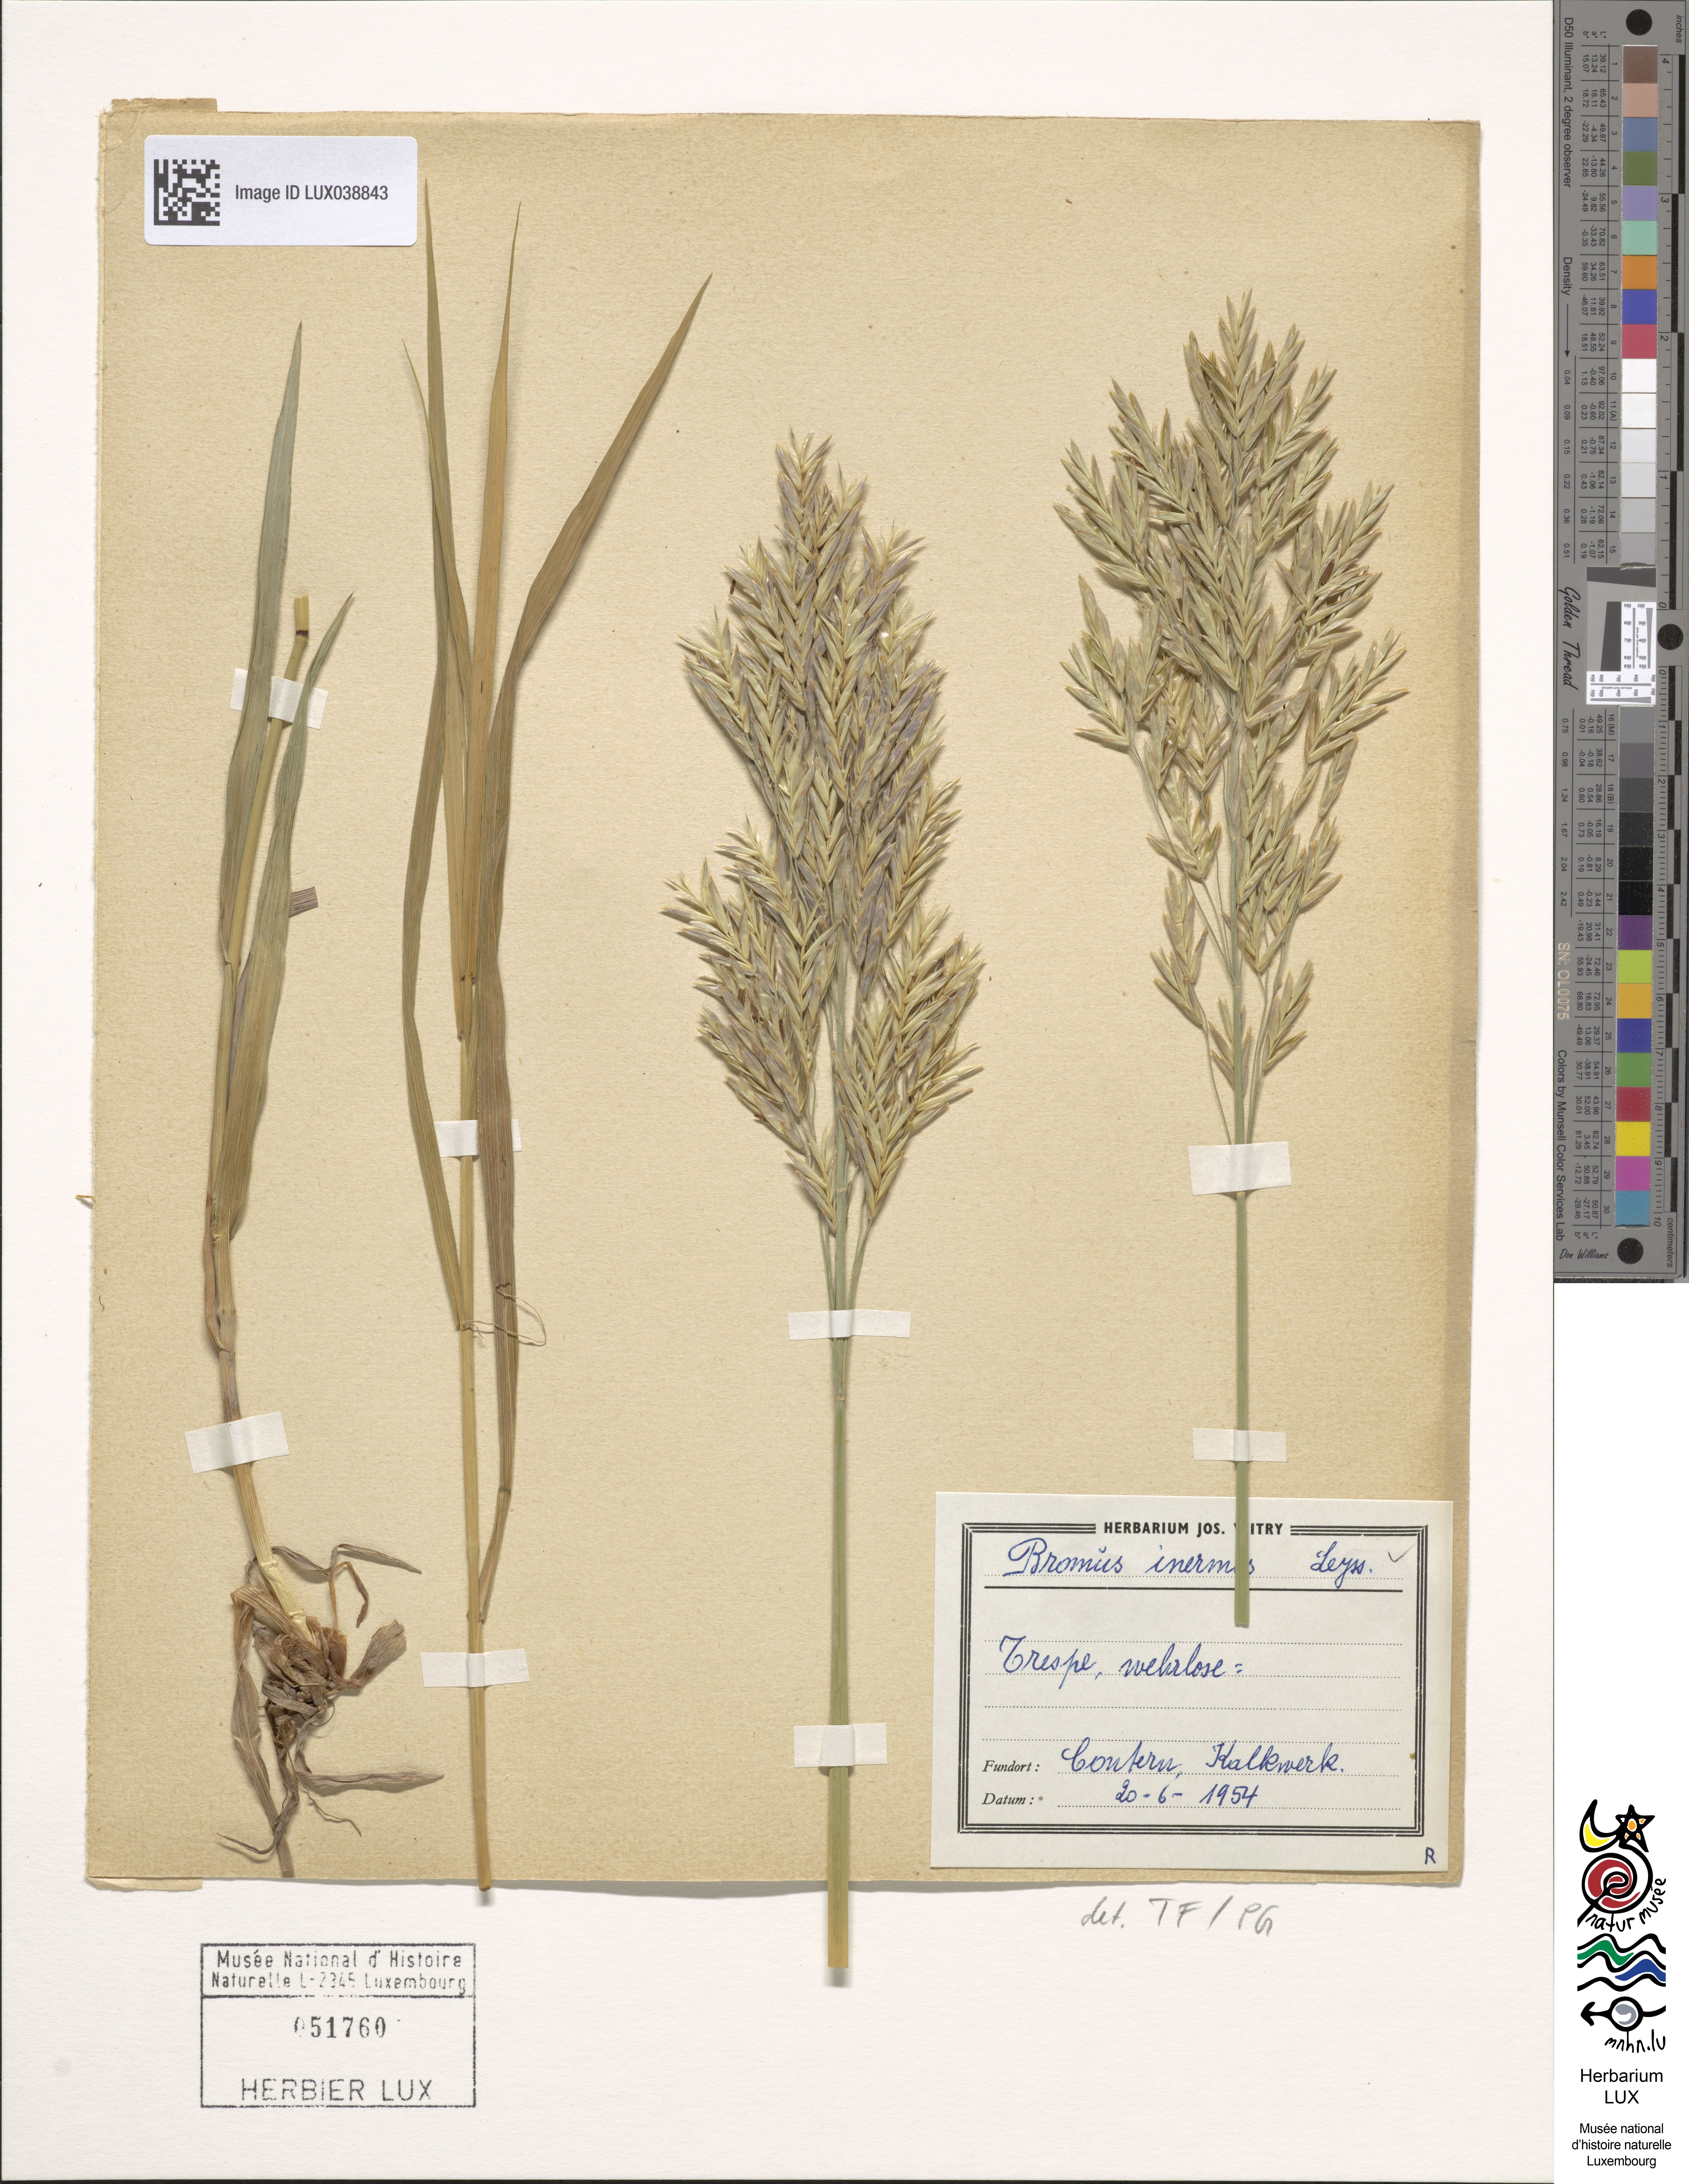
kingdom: Plantae
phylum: Tracheophyta
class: Liliopsida
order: Poales
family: Poaceae
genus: Bromus
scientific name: Bromus inermis
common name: Smooth brome
